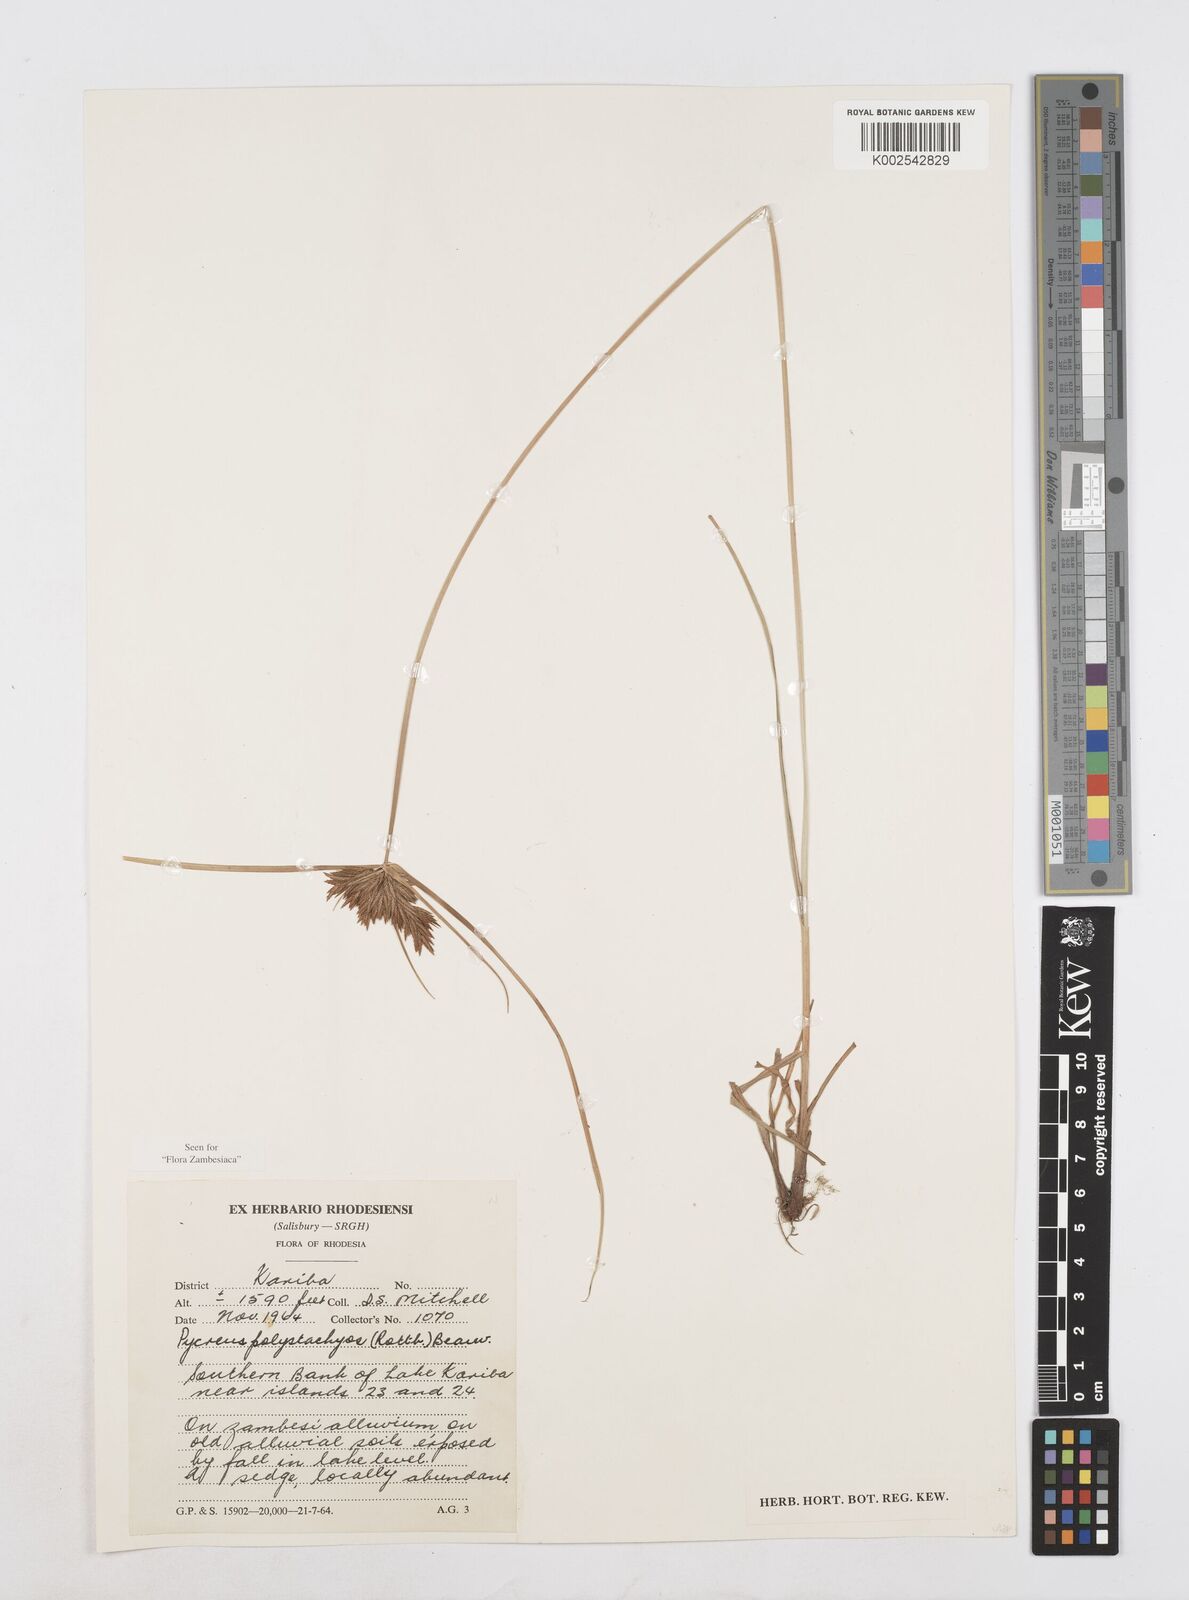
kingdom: Plantae
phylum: Tracheophyta
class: Liliopsida
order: Poales
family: Cyperaceae
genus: Cyperus
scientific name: Cyperus polystachyos
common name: Bunchy flat sedge
